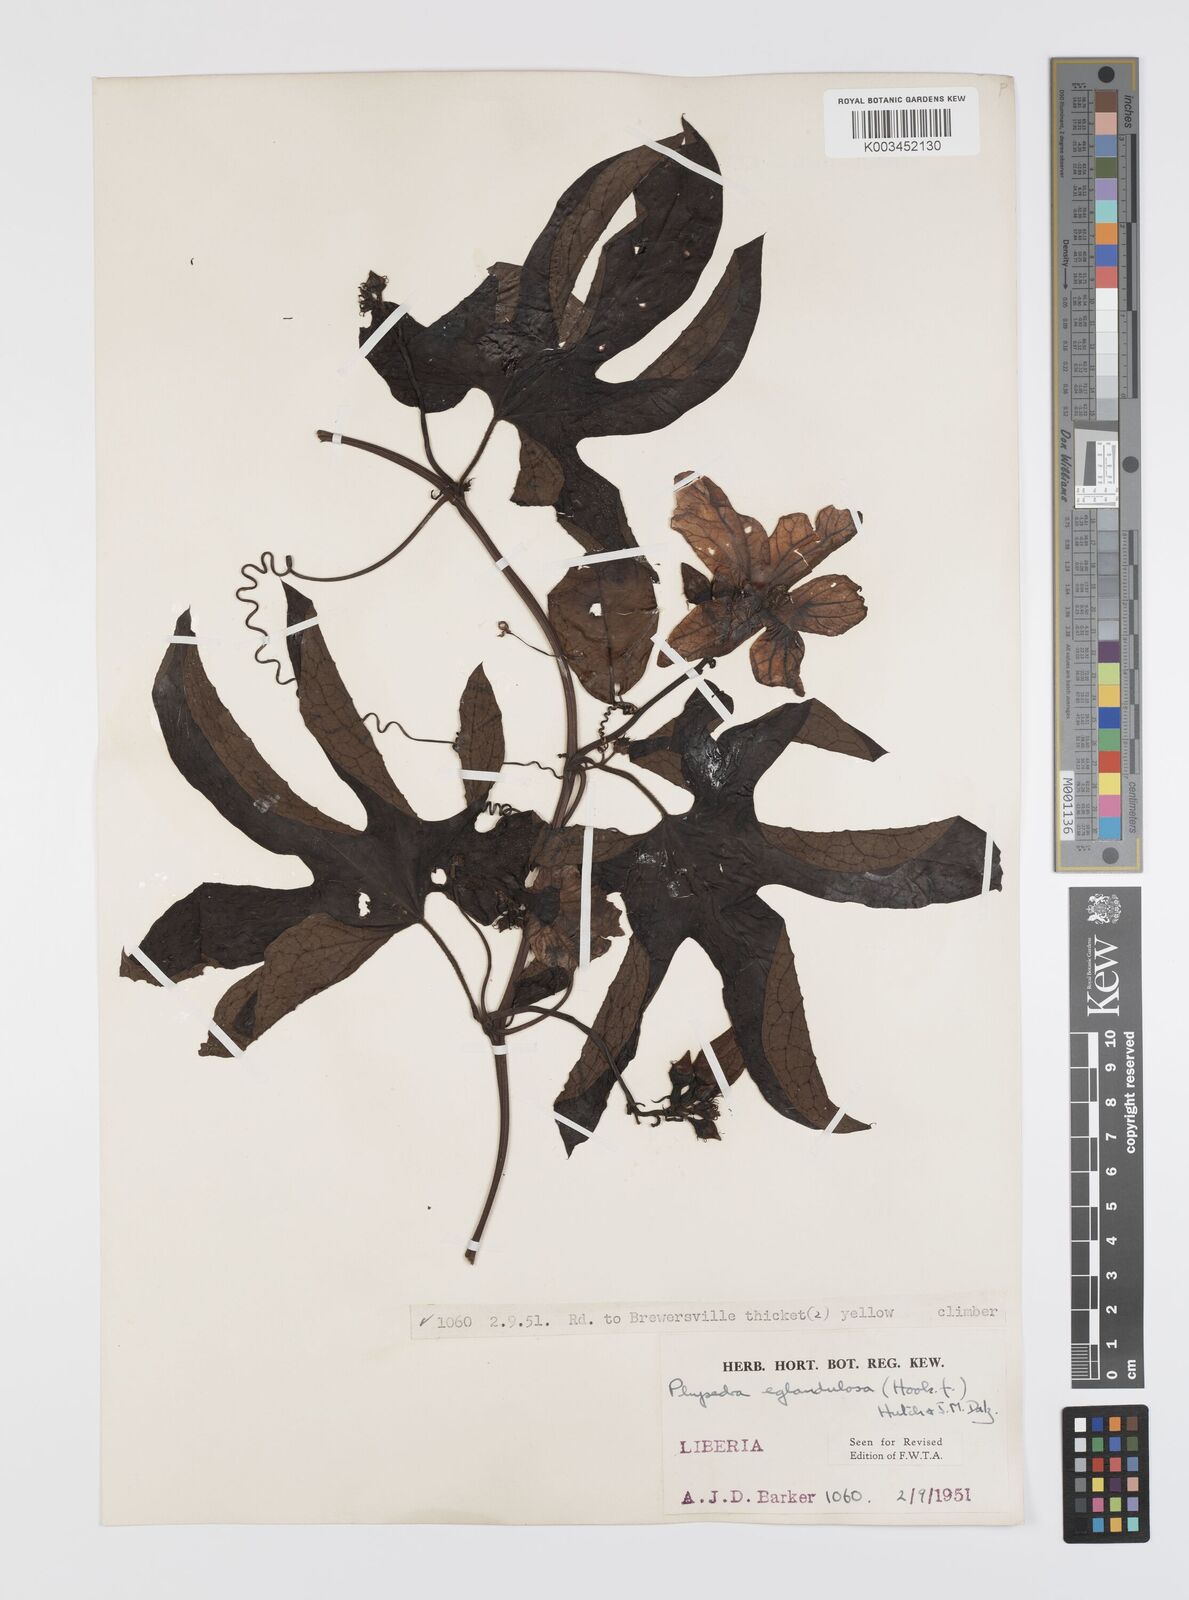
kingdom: Plantae
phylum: Tracheophyta
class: Magnoliopsida
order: Cucurbitales
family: Cucurbitaceae
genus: Ruthalicia
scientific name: Ruthalicia eglandulosa
